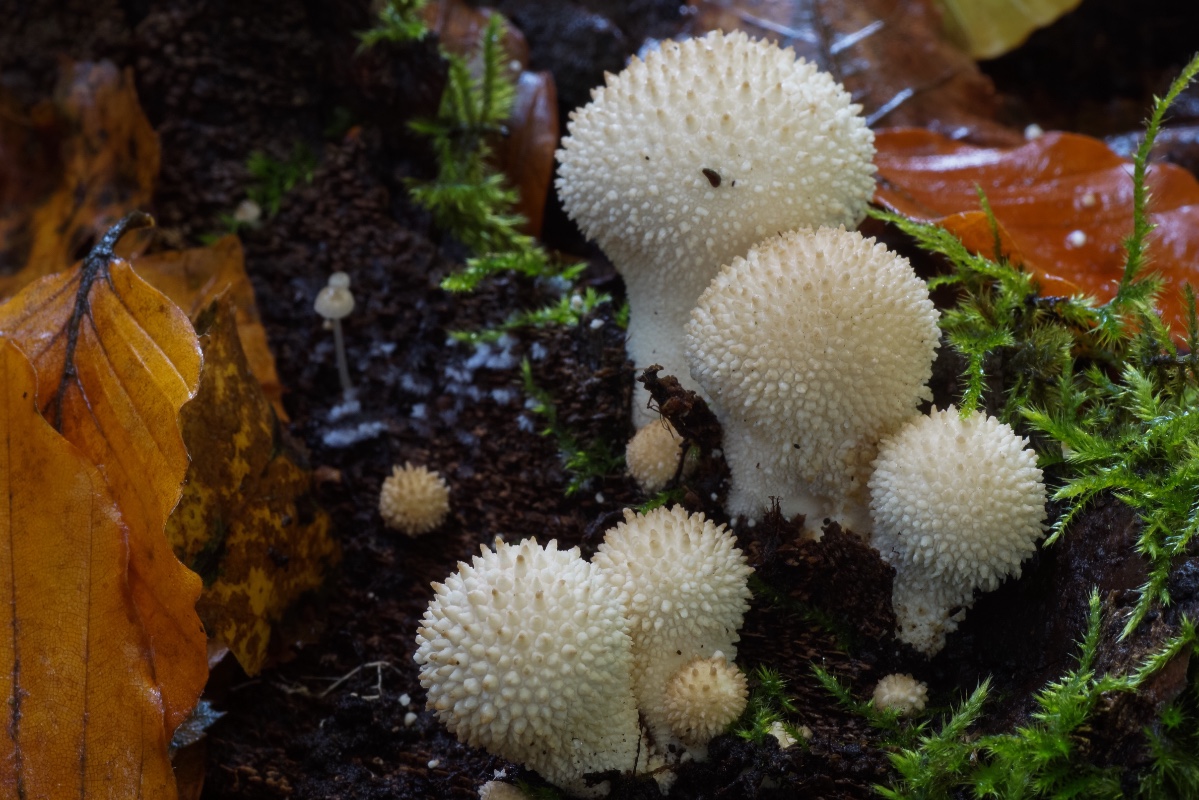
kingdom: Fungi
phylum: Basidiomycota
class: Agaricomycetes
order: Agaricales
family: Lycoperdaceae
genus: Lycoperdon
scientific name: Lycoperdon perlatum
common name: krystal-støvbold
